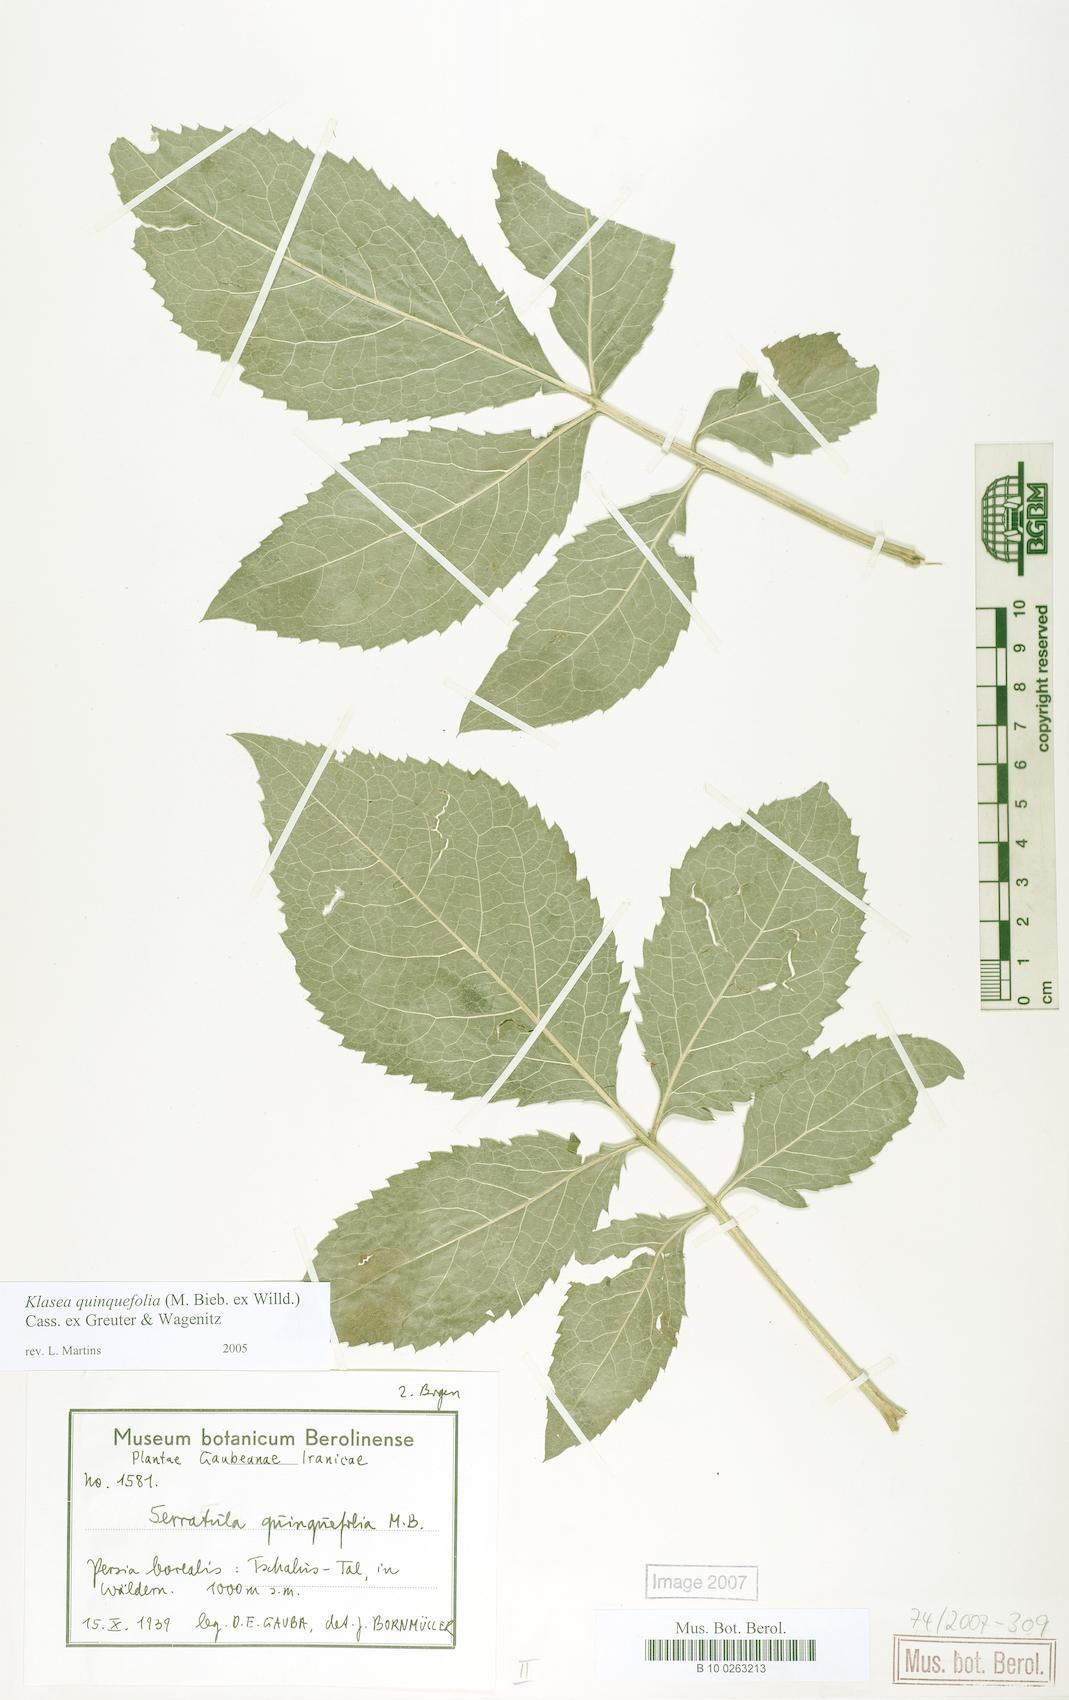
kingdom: Plantae
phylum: Tracheophyta
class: Magnoliopsida
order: Asterales
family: Asteraceae
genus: Klasea
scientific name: Klasea quinquefolia
